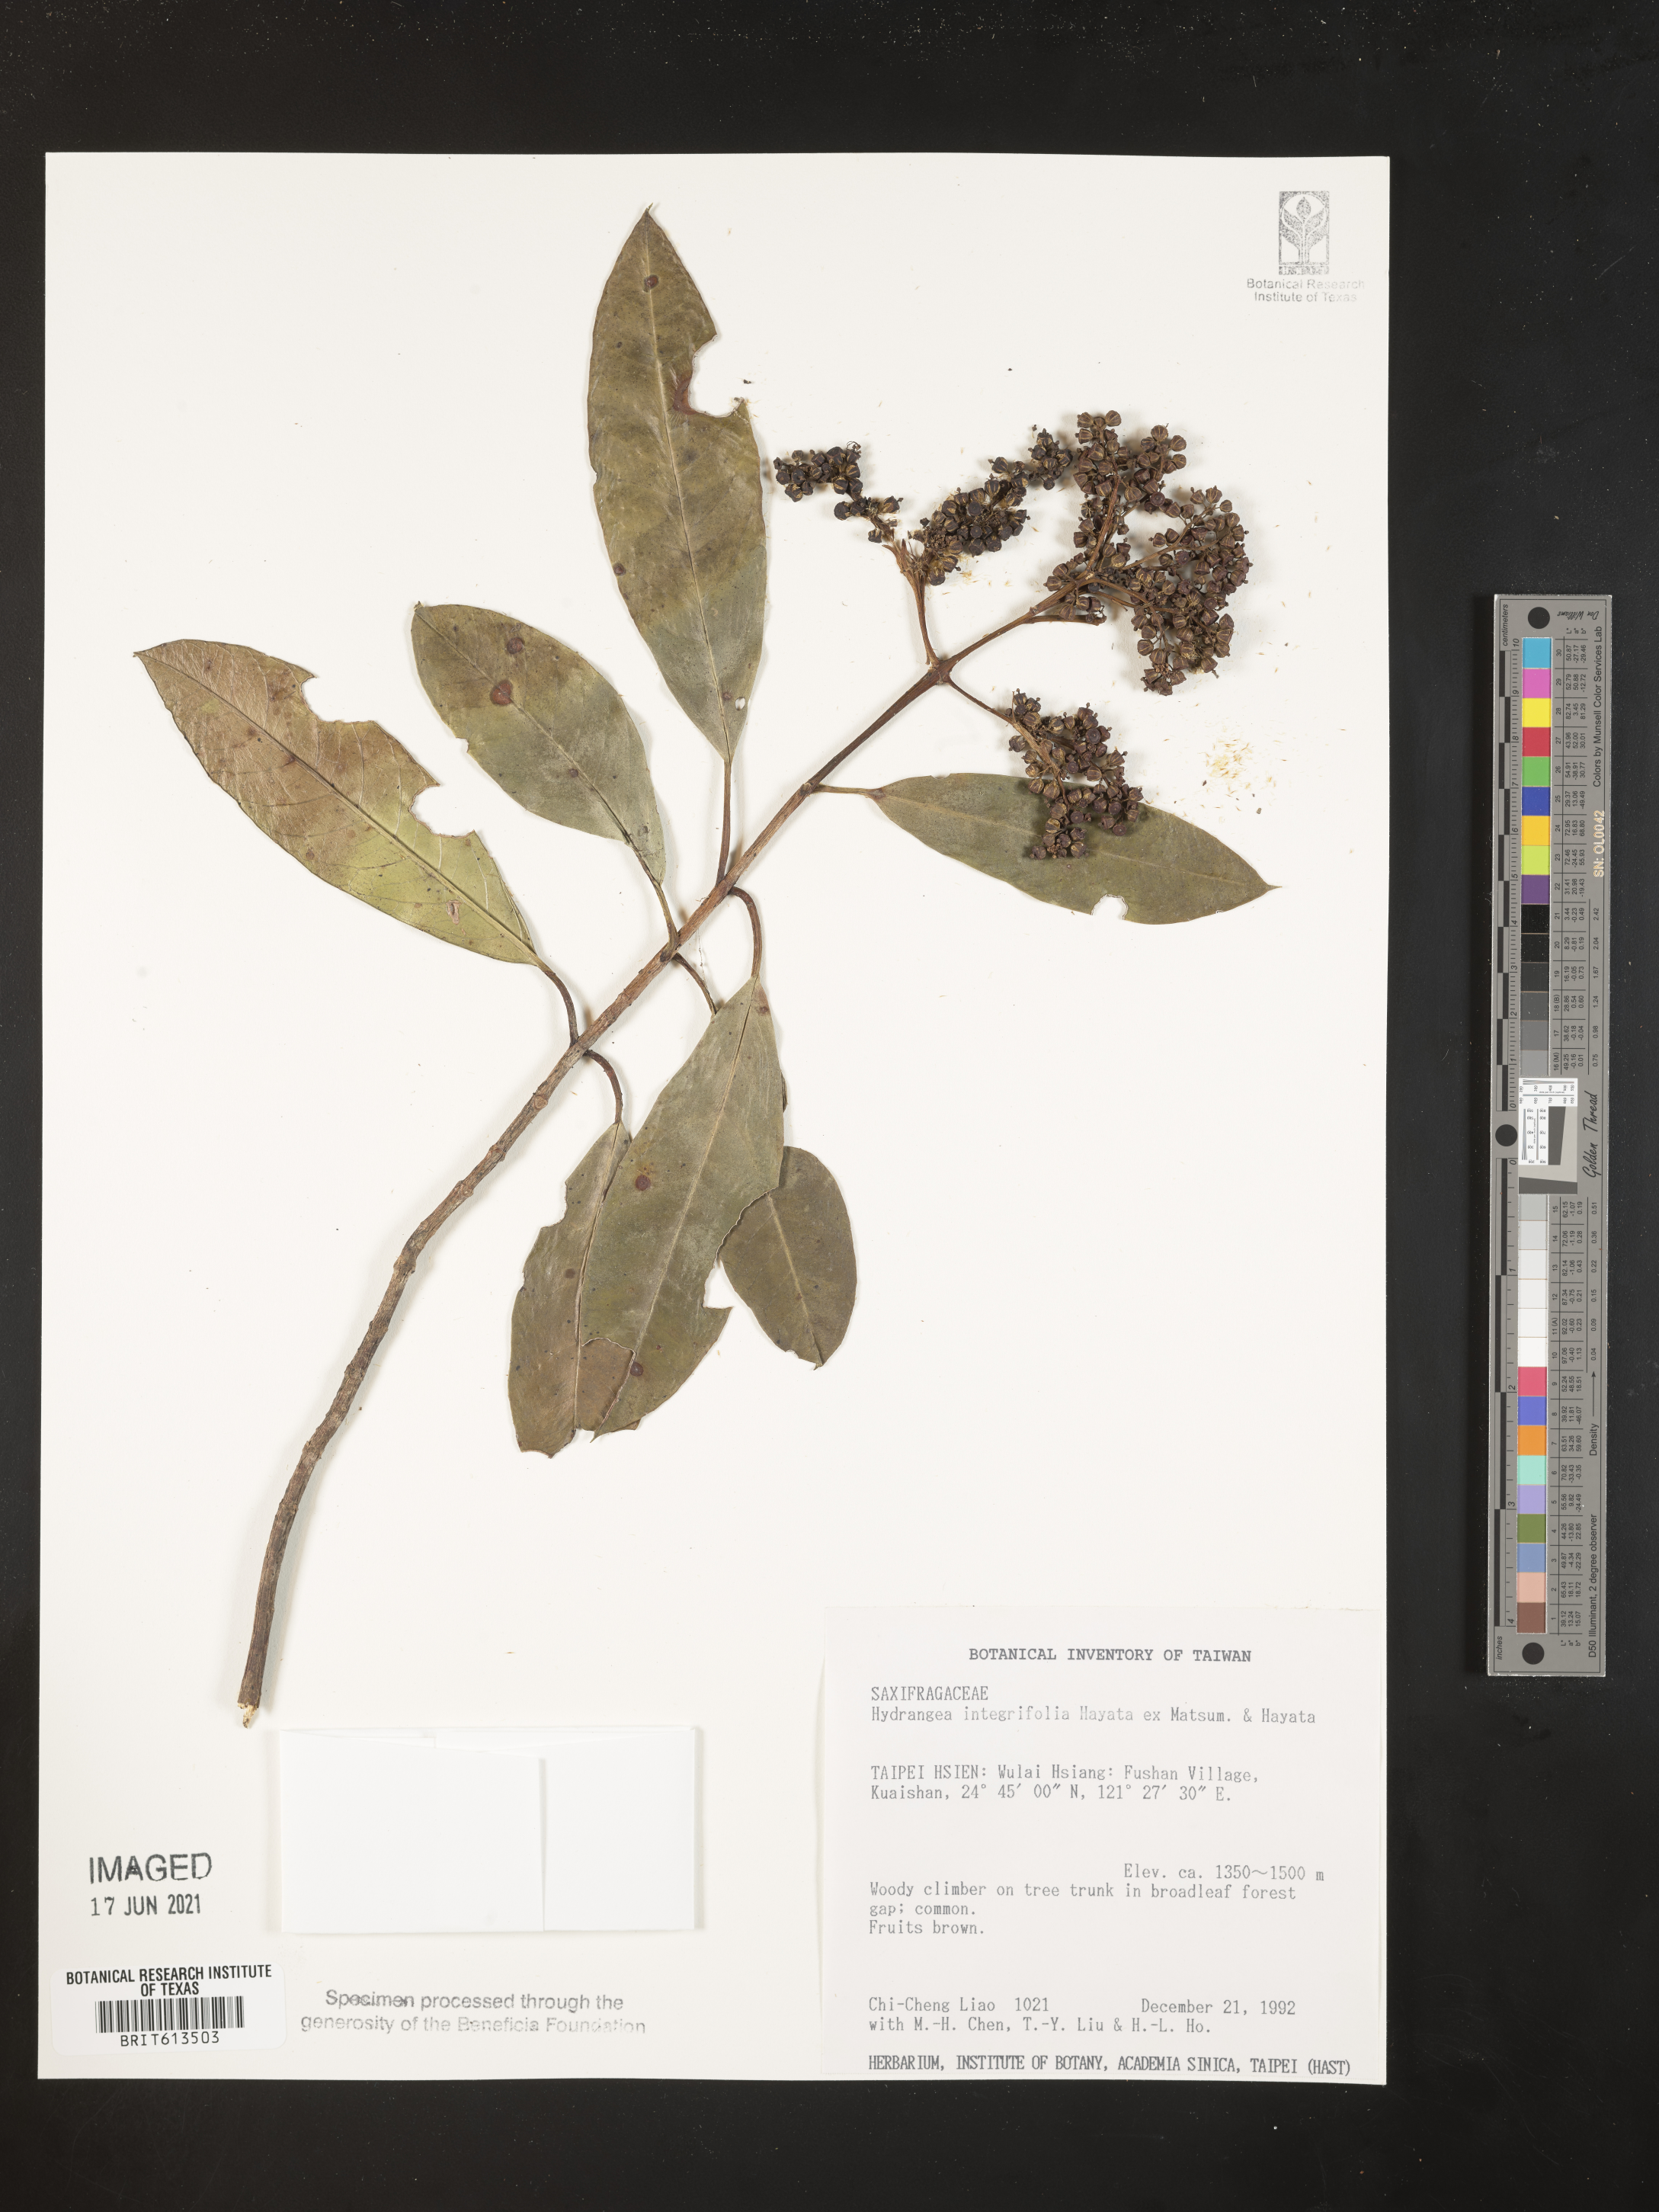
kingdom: Plantae
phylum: Tracheophyta
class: Magnoliopsida
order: Cornales
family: Hydrangeaceae
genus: Hydrangea
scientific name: Hydrangea integrifolia
